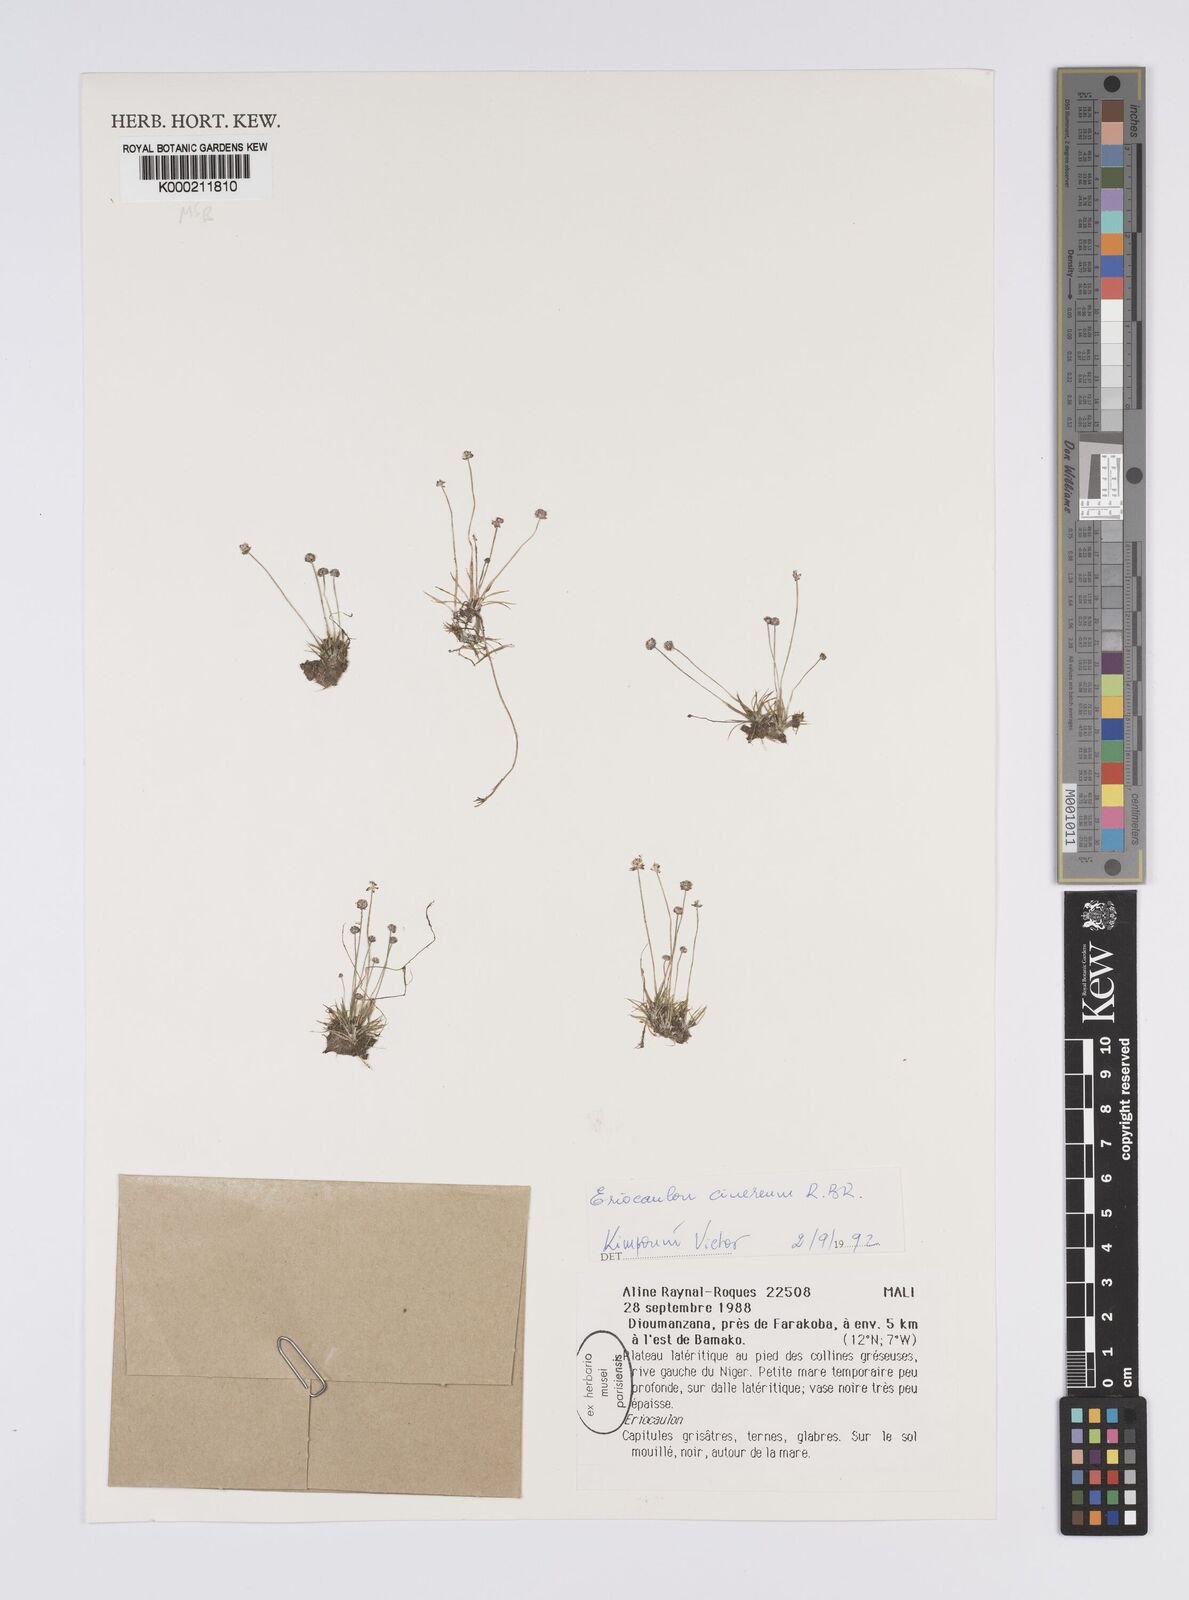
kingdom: Plantae
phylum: Tracheophyta
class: Liliopsida
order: Poales
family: Eriocaulaceae
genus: Eriocaulon
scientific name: Eriocaulon cinereum
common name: Ashy pipewort
